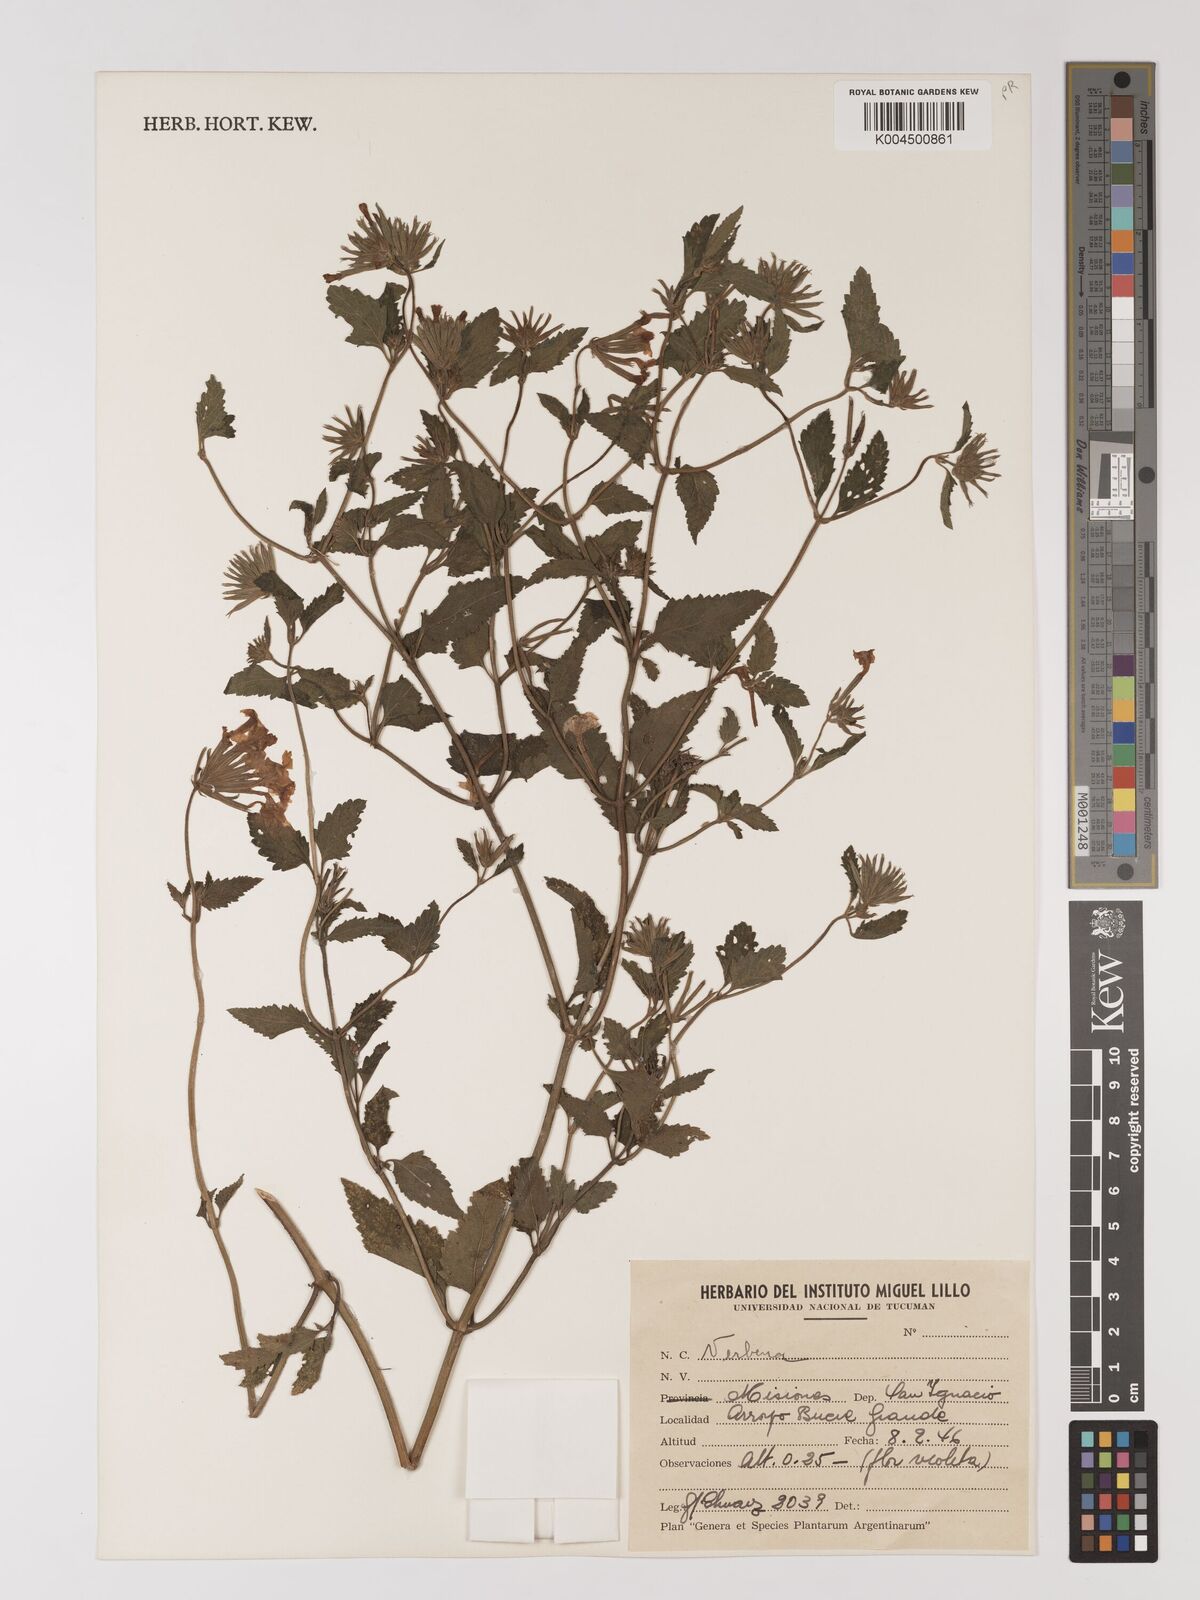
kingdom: Plantae
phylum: Tracheophyta
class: Magnoliopsida
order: Lamiales
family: Verbenaceae
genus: Verbena
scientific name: Verbena
